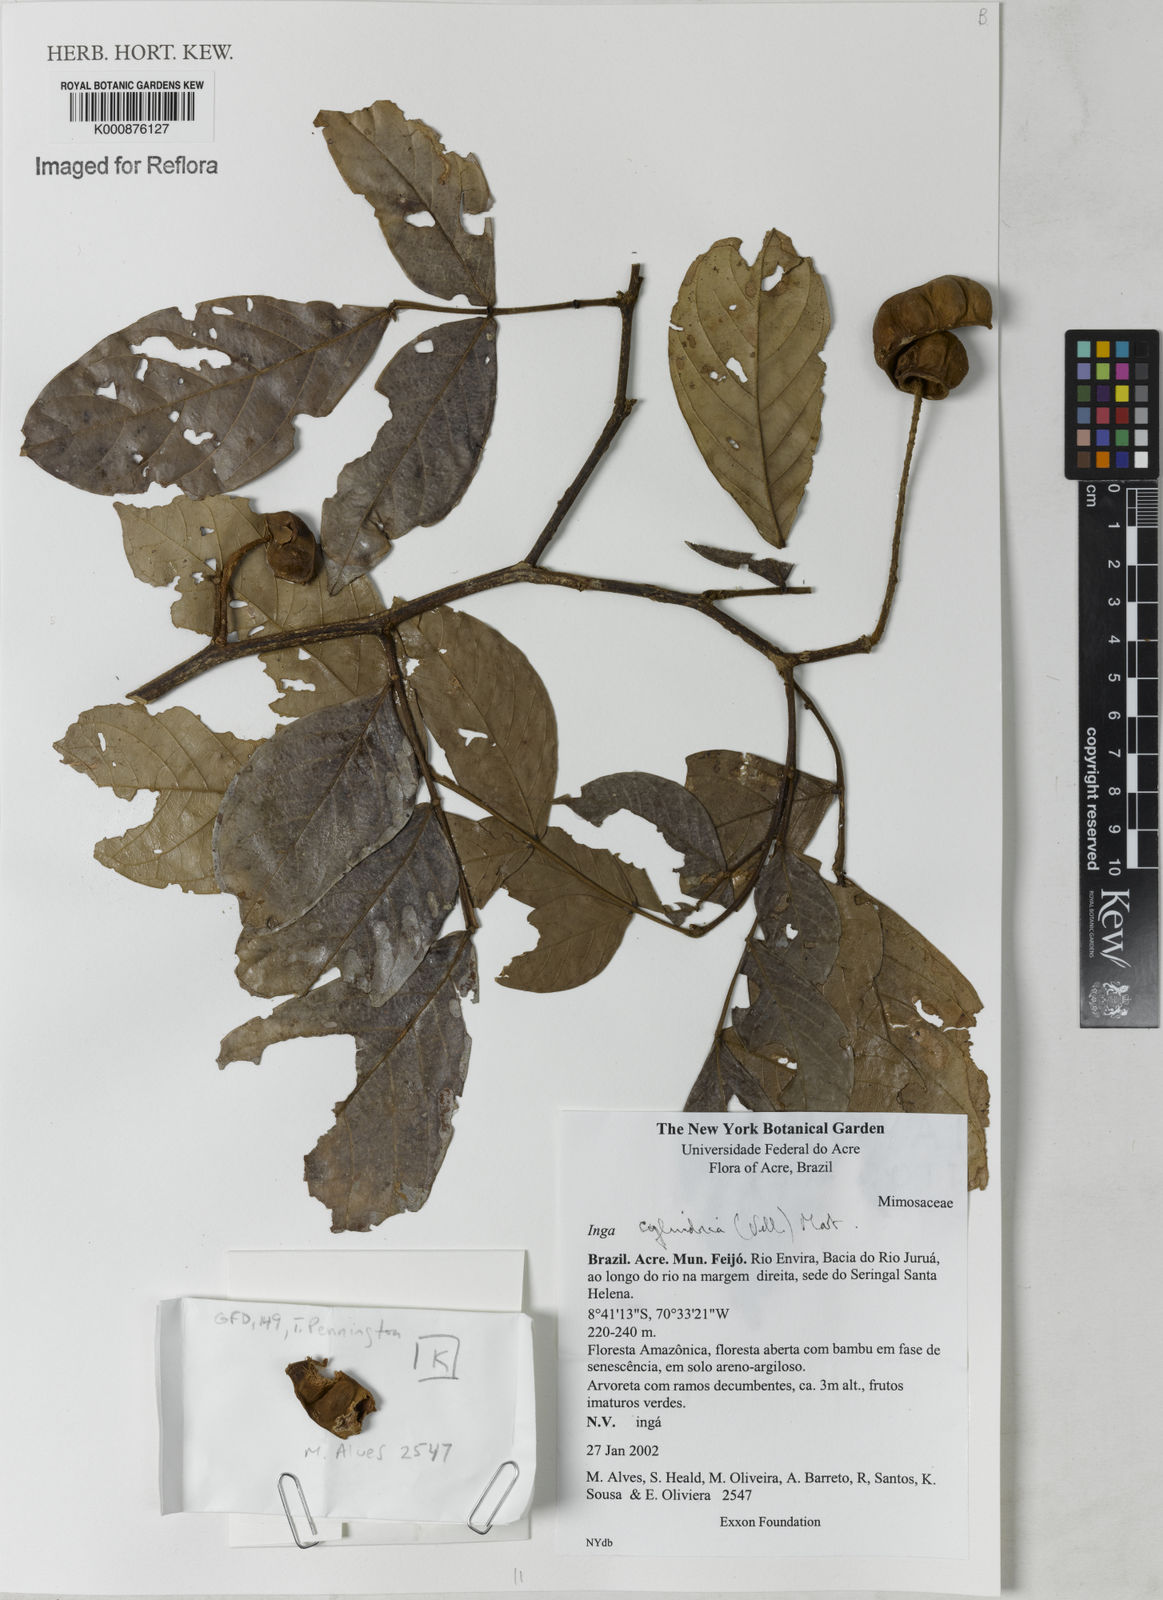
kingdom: Plantae
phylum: Tracheophyta
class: Magnoliopsida
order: Fabales
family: Fabaceae
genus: Inga
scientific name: Inga cylindrica
